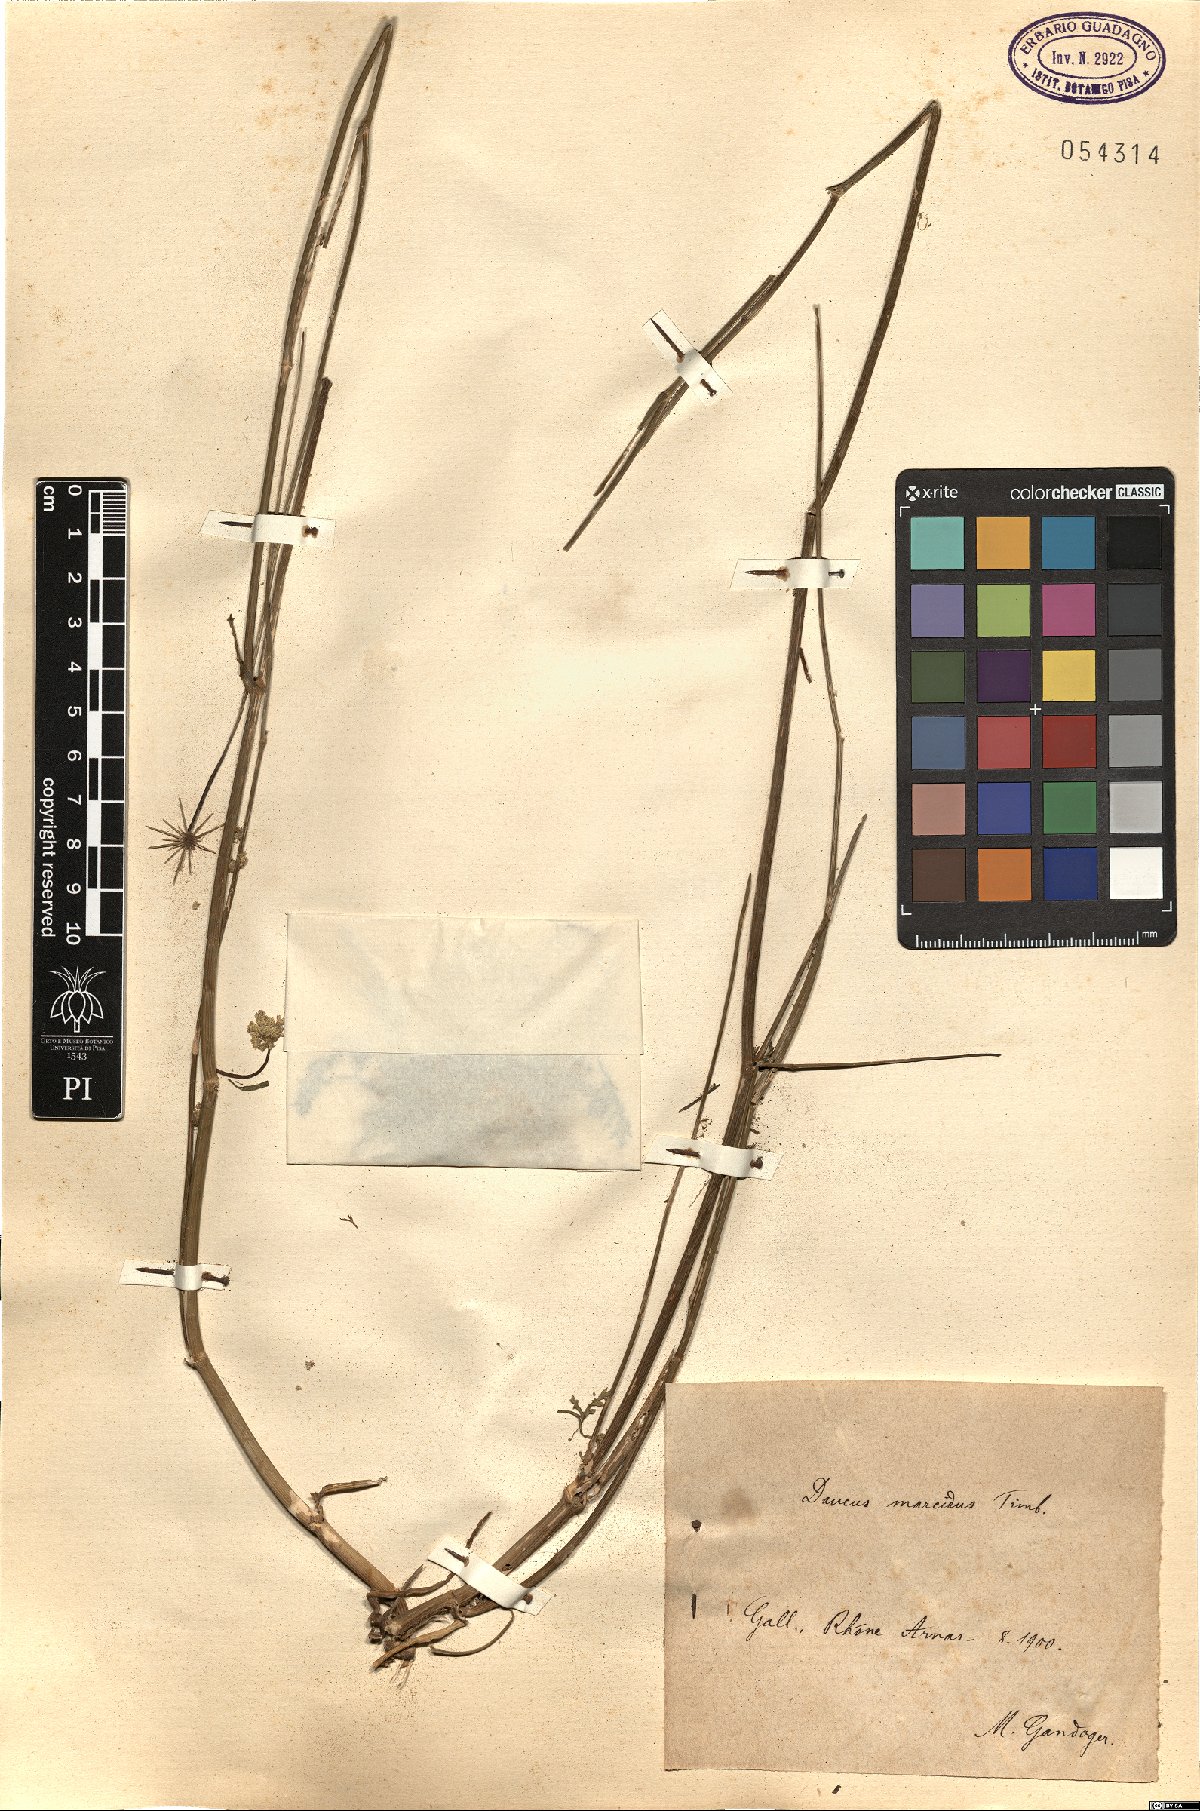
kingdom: Plantae
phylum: Tracheophyta
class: Magnoliopsida
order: Apiales
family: Apiaceae
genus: Daucus
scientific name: Daucus carota
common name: Wild carrot
